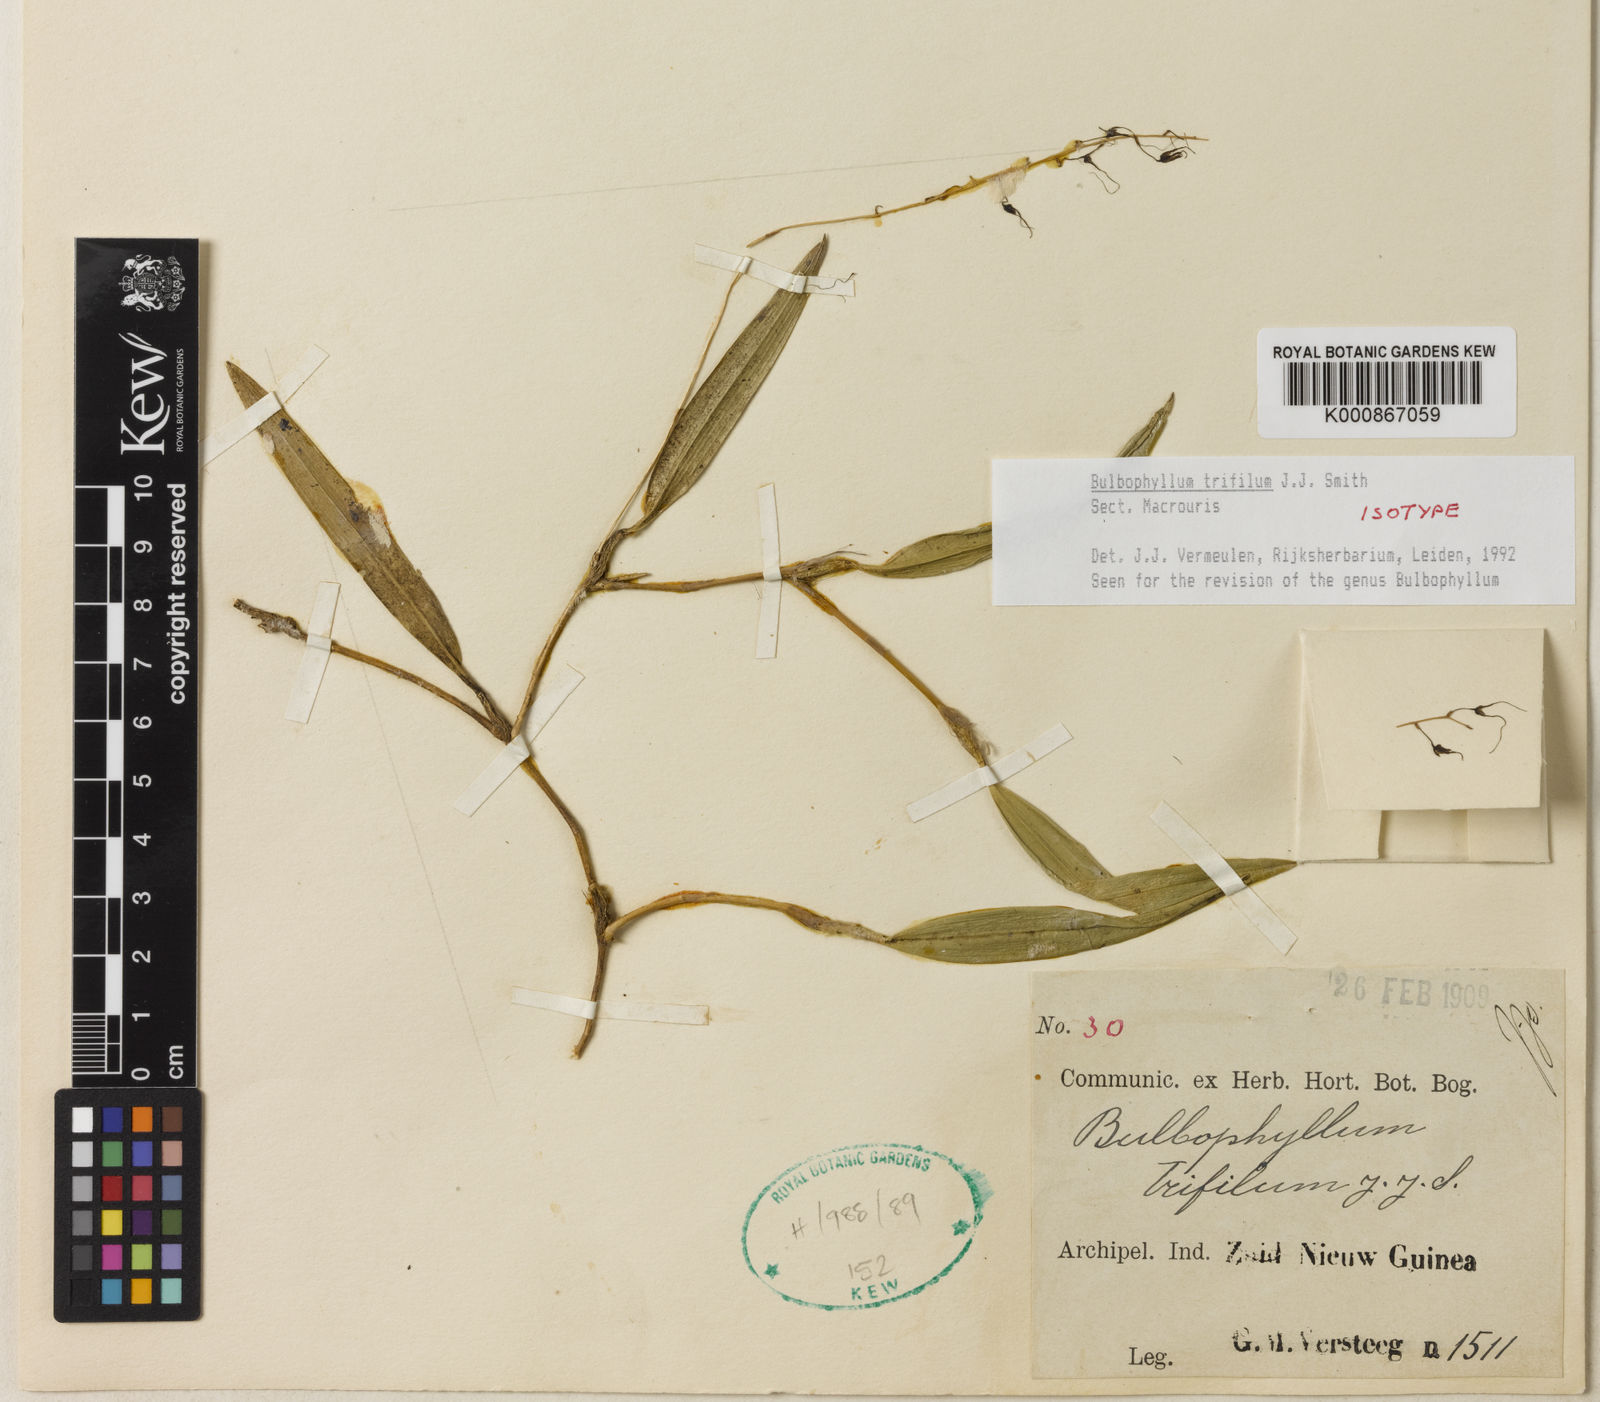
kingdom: Plantae
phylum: Tracheophyta
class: Liliopsida
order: Asparagales
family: Orchidaceae
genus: Bulbophyllum
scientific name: Bulbophyllum trifilum
